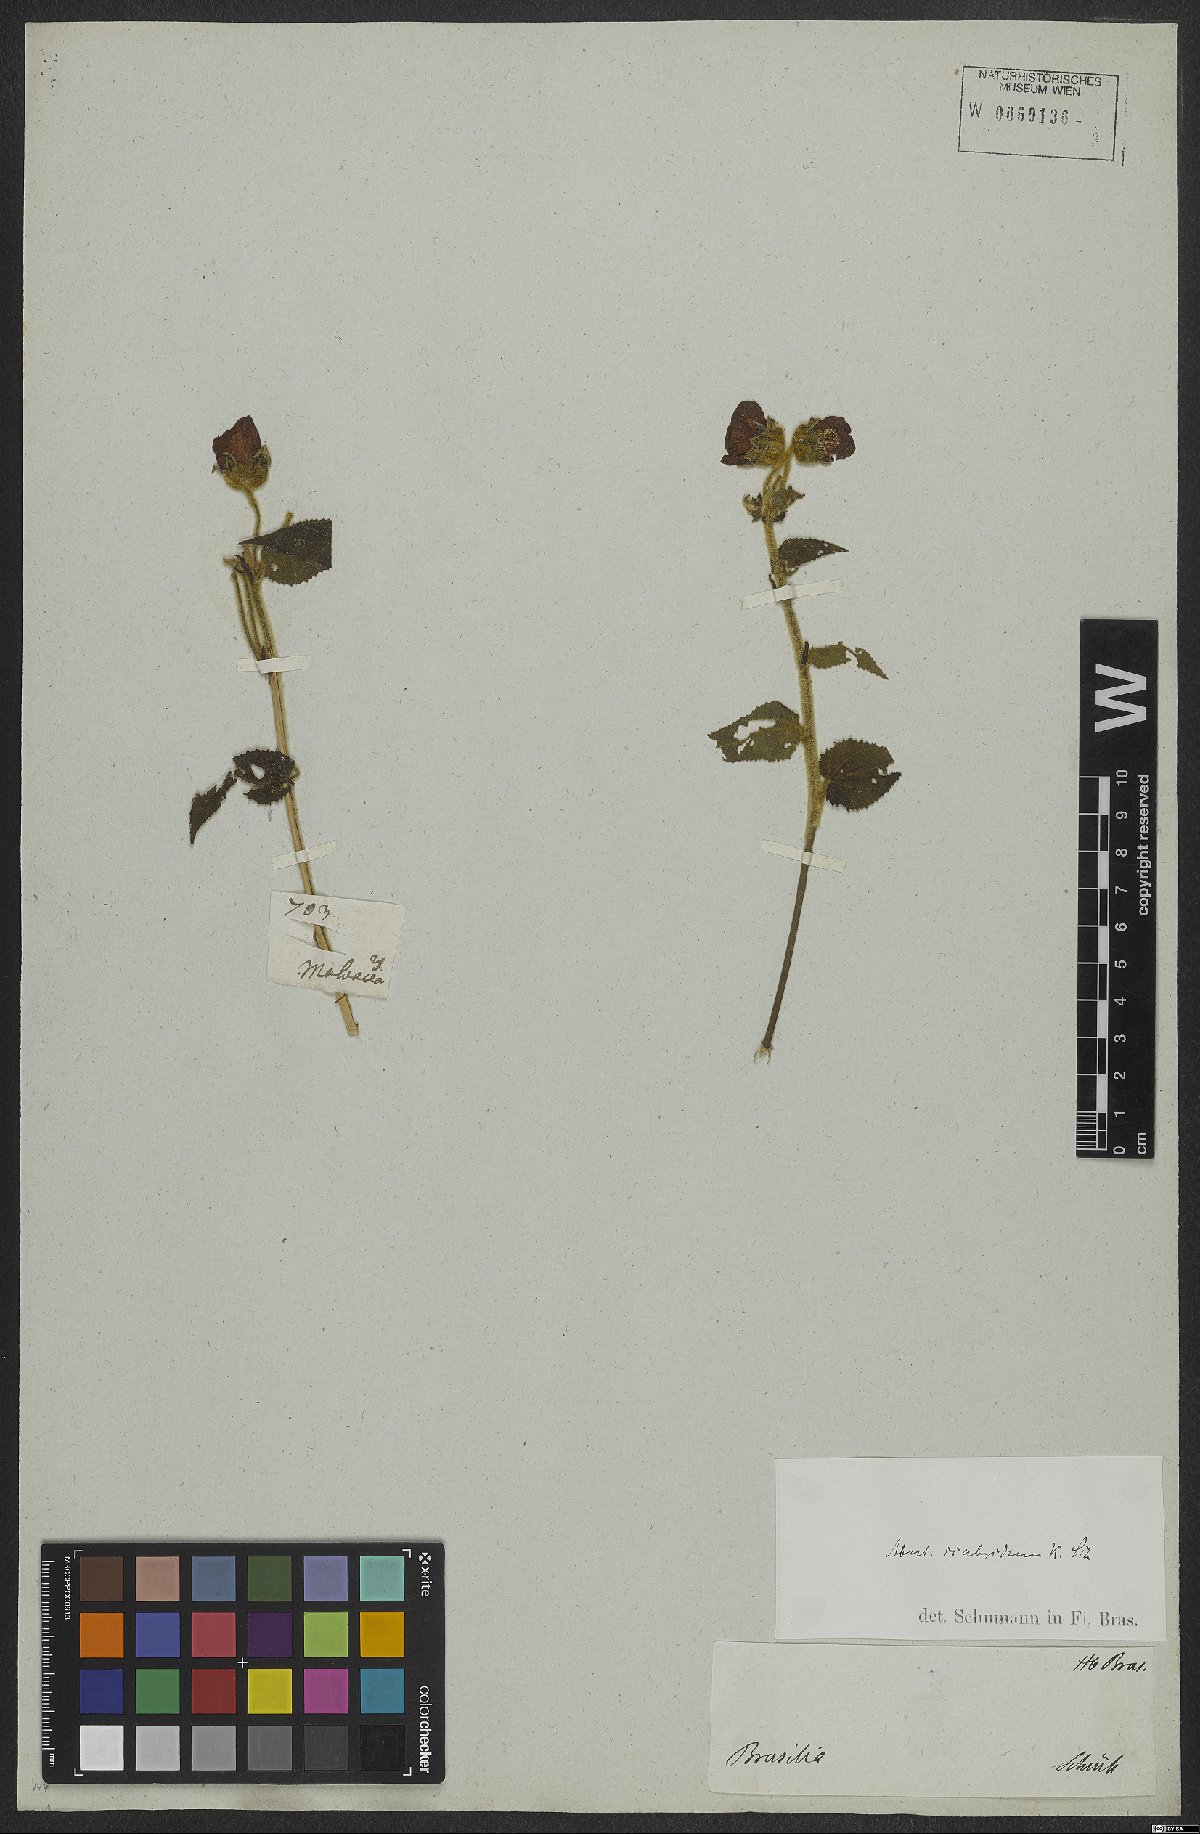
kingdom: Plantae
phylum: Tracheophyta
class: Magnoliopsida
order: Malvales
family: Malvaceae
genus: Callianthe
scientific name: Callianthe scabrida
